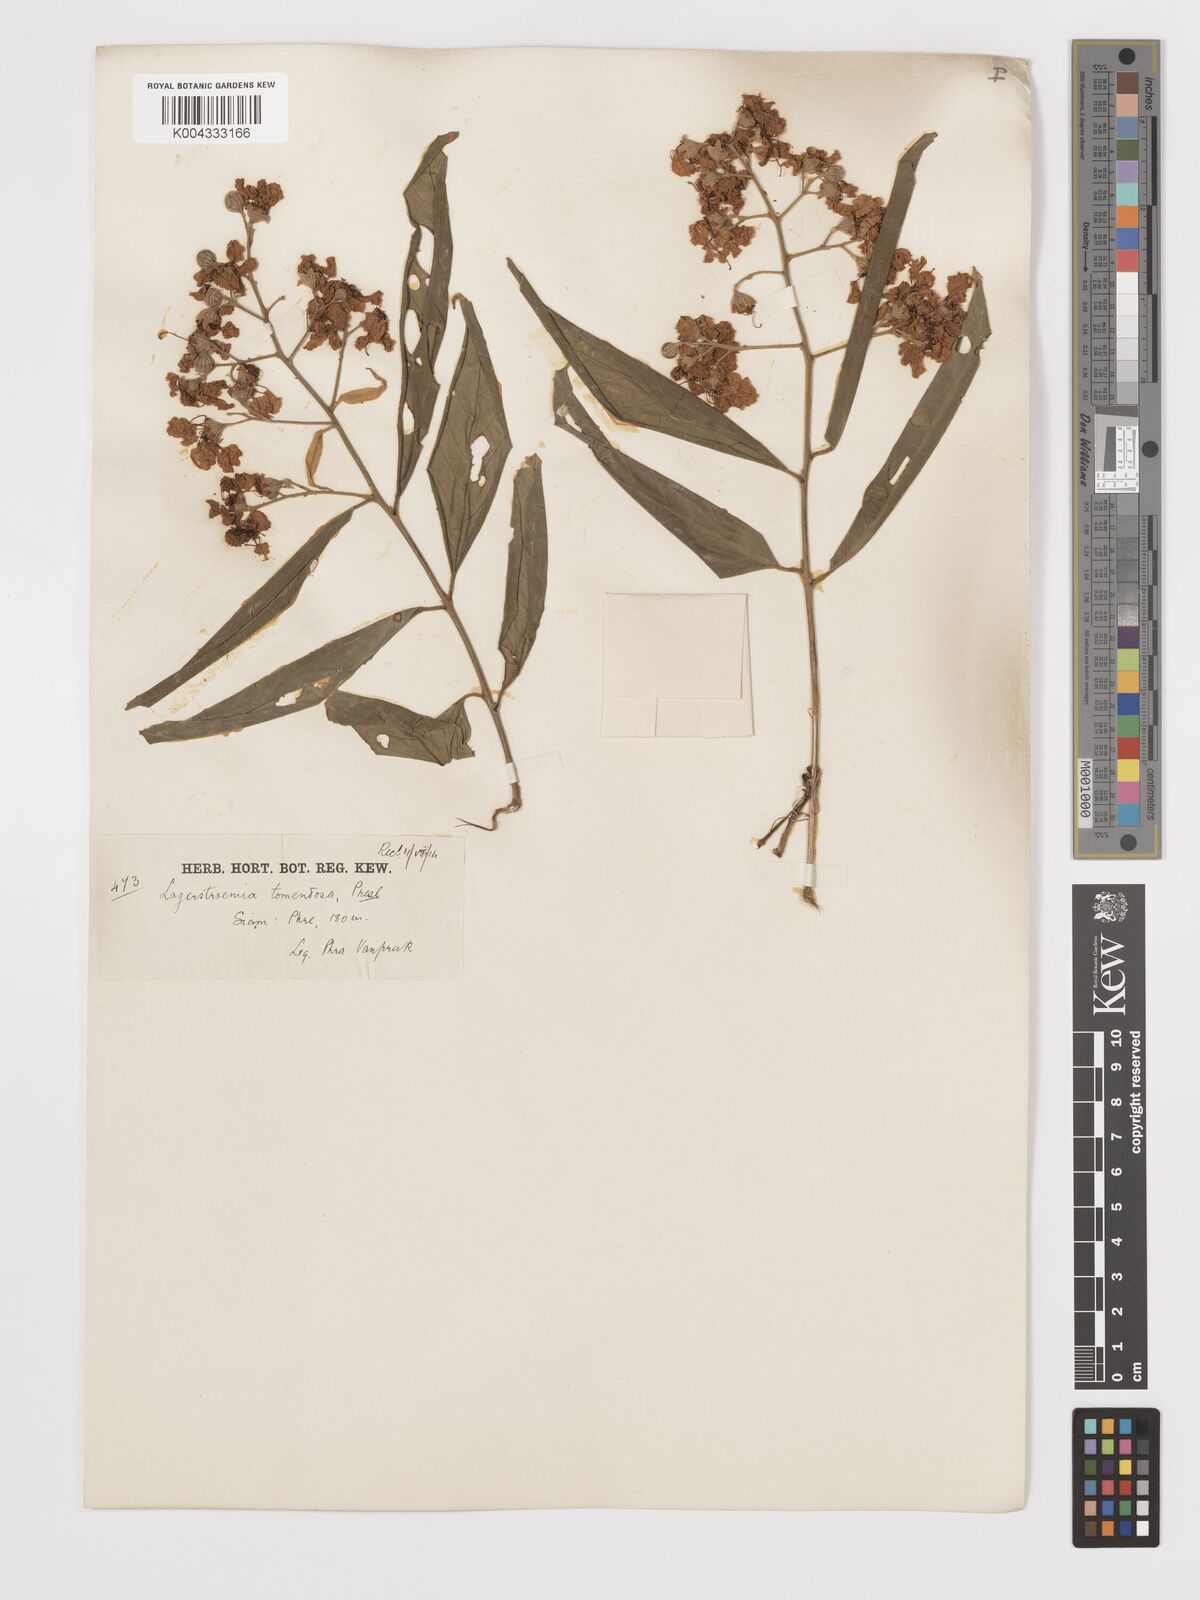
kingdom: Plantae
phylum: Tracheophyta
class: Magnoliopsida
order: Myrtales
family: Lythraceae
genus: Lagerstroemia
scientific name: Lagerstroemia tomentosa
